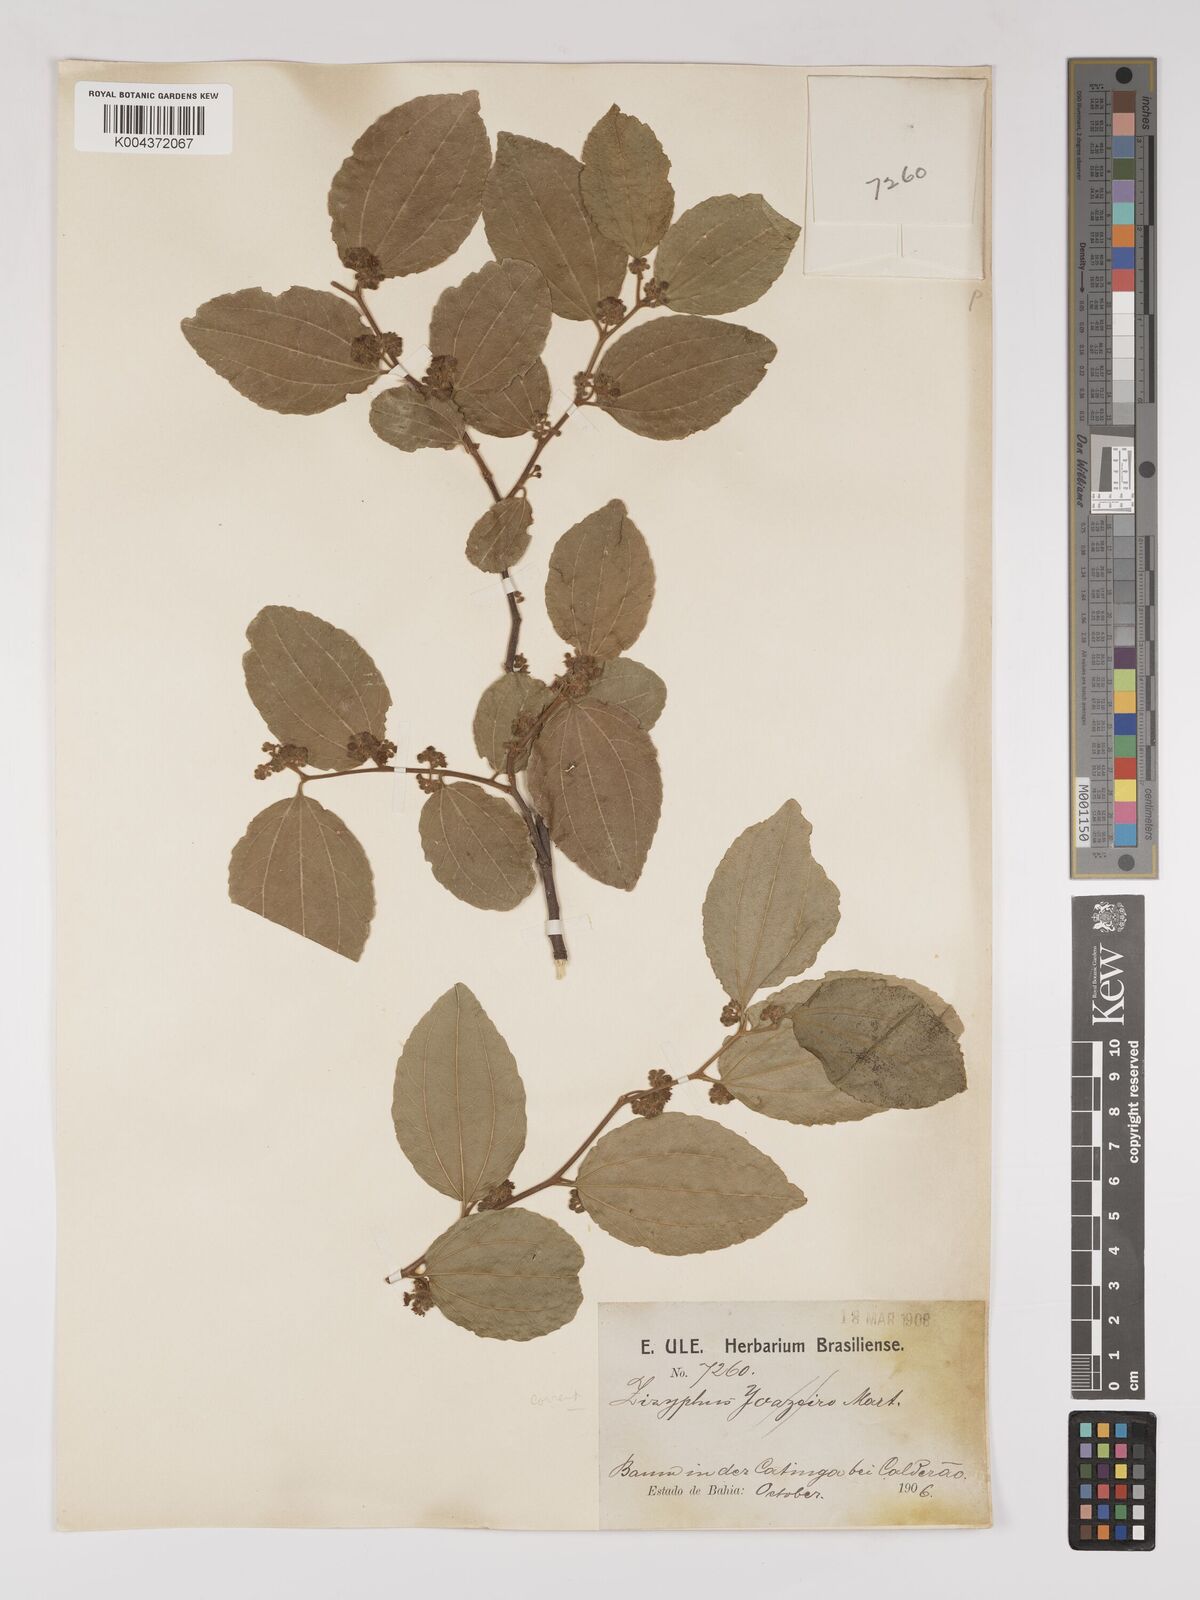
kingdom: Plantae
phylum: Tracheophyta
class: Magnoliopsida
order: Rosales
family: Rhamnaceae
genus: Sarcomphalus
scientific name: Sarcomphalus cotinifolius
